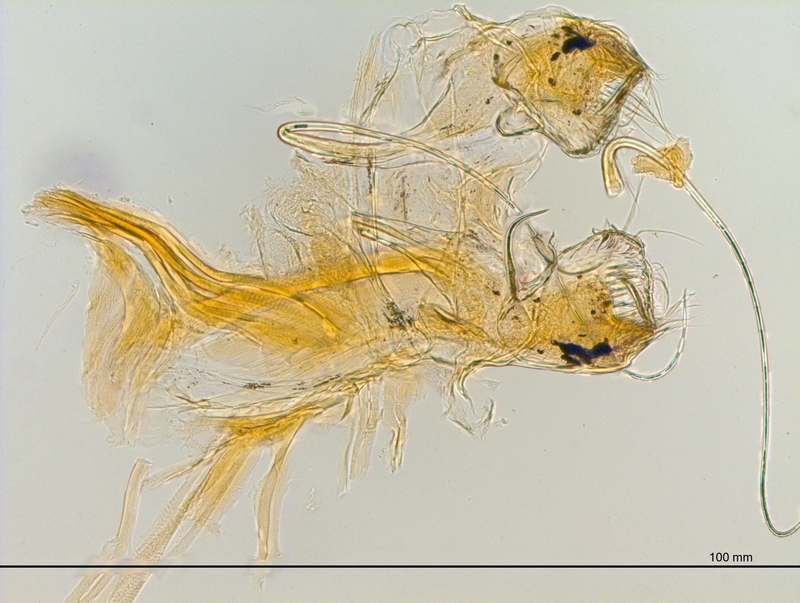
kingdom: Animalia
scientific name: Animalia
